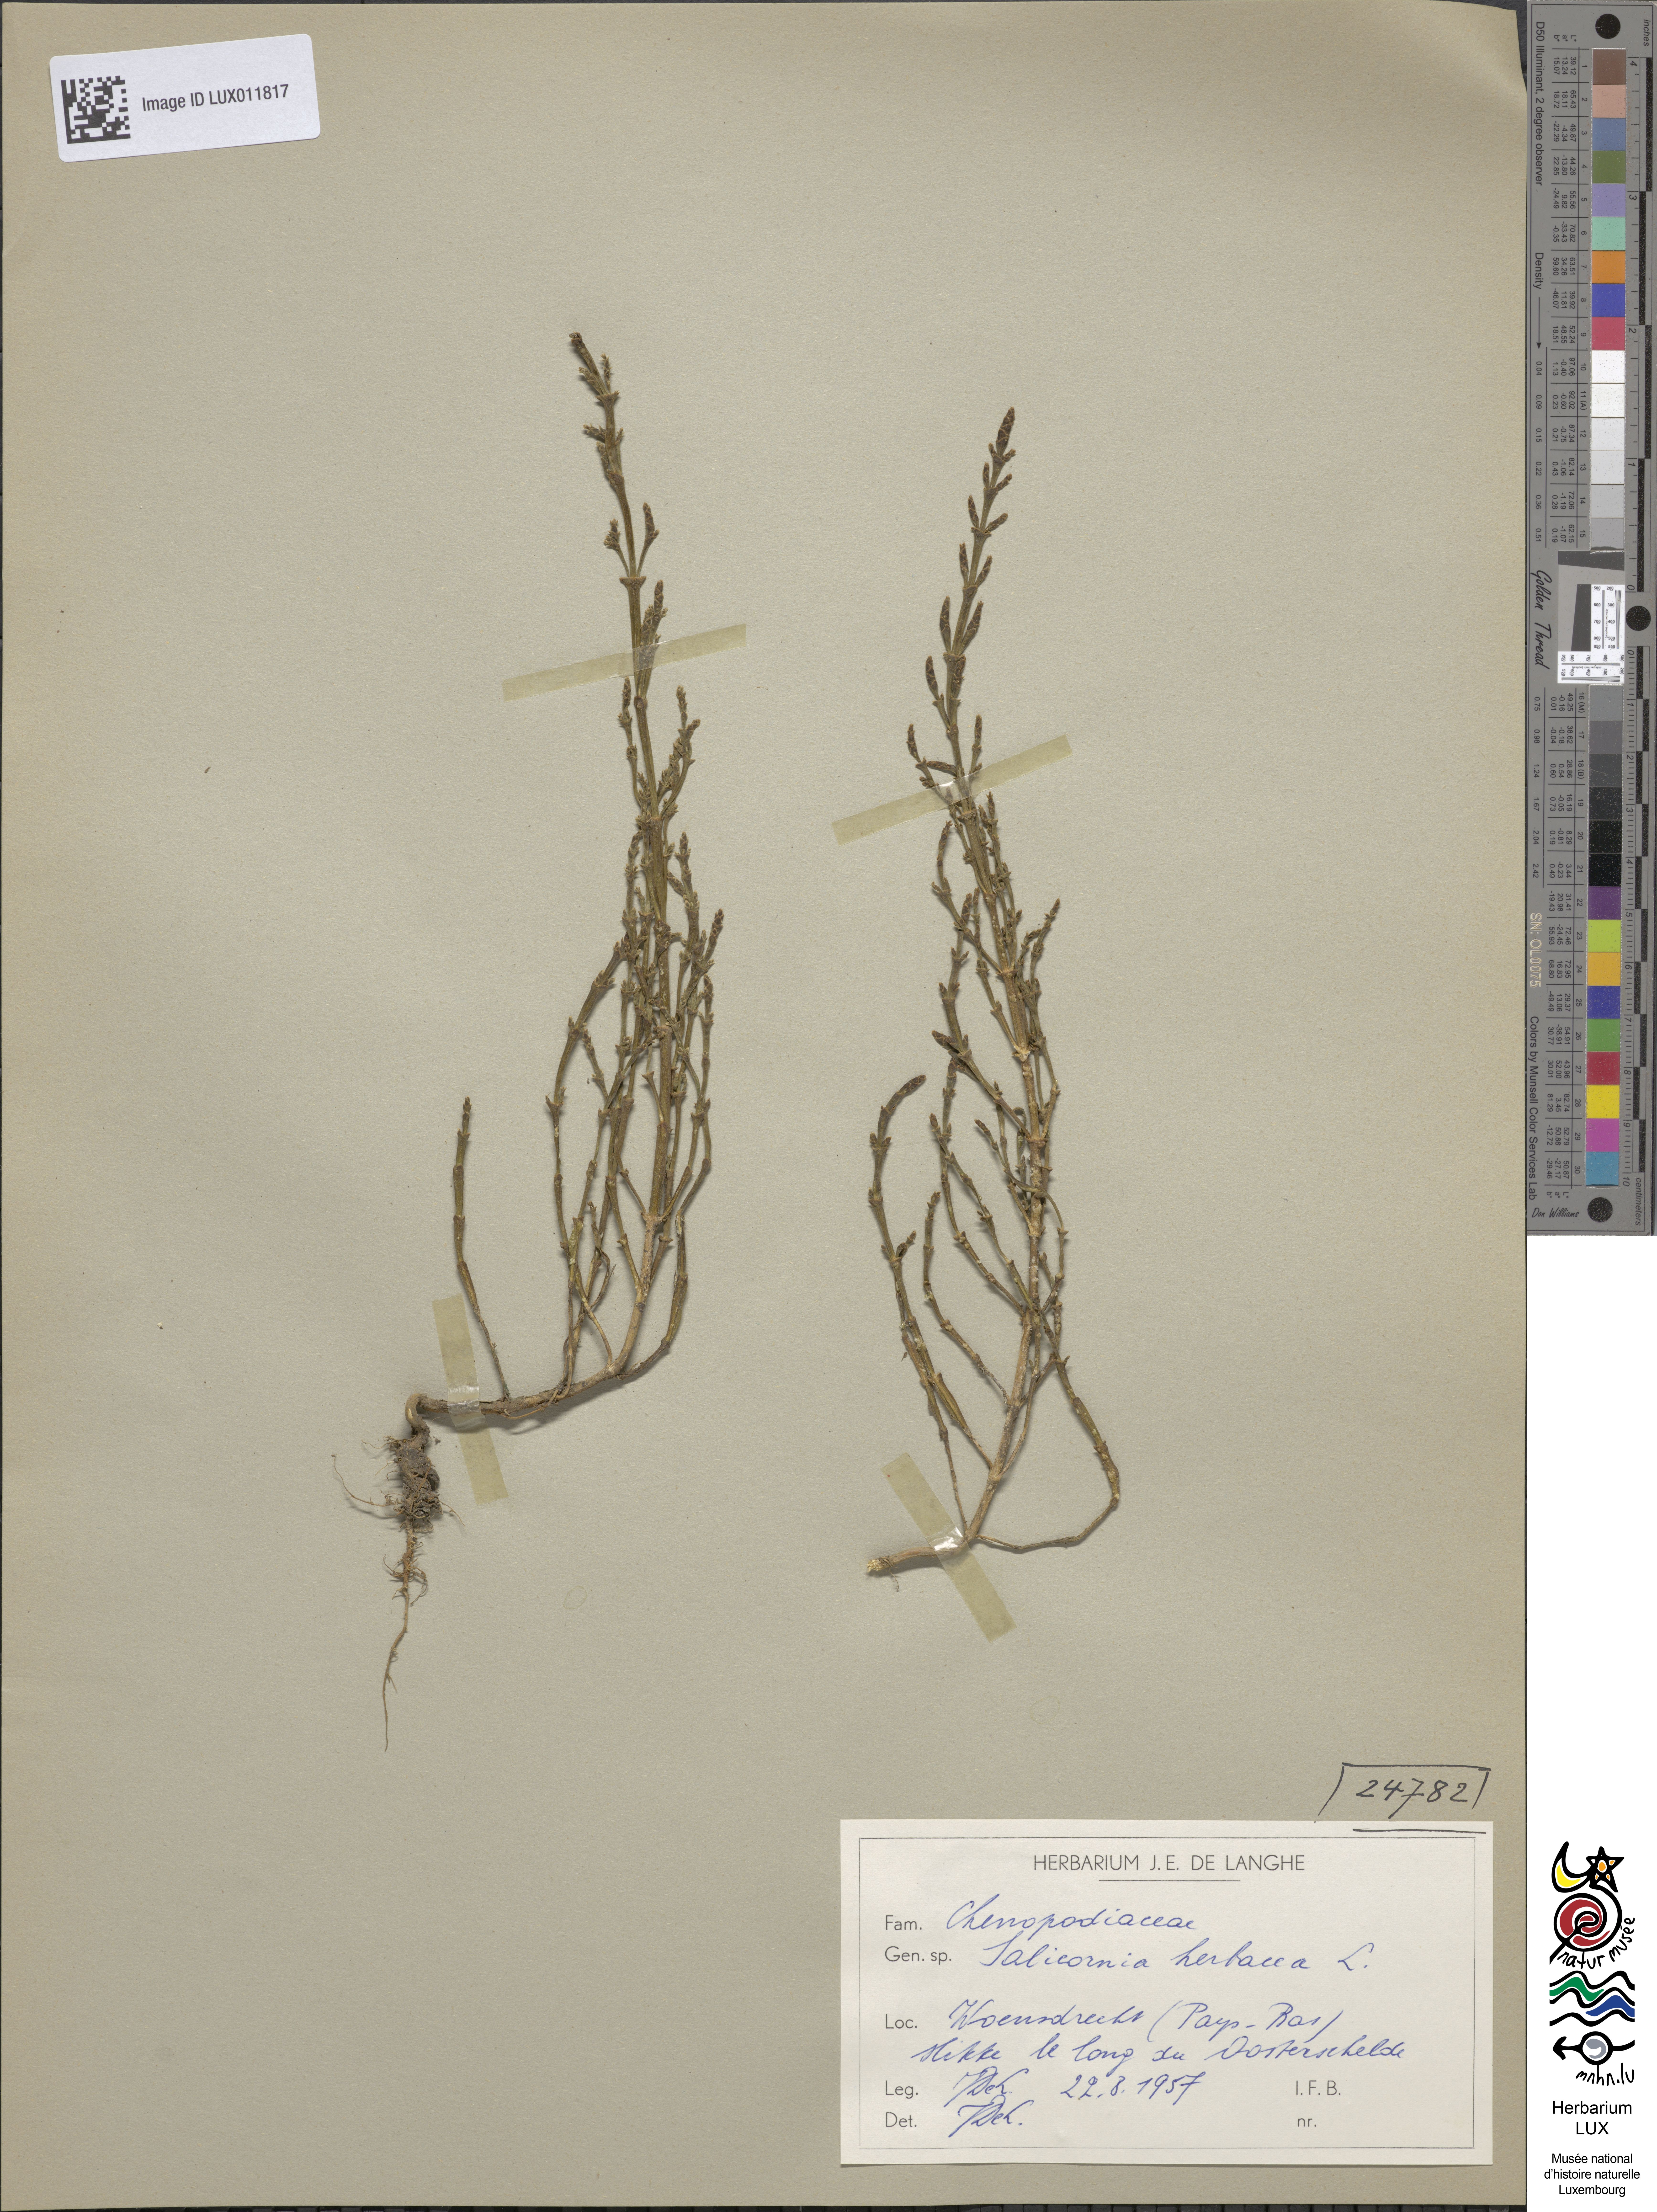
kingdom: Plantae
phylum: Tracheophyta
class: Magnoliopsida
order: Caryophyllales
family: Amaranthaceae
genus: Salicornia
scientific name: Salicornia europaea
